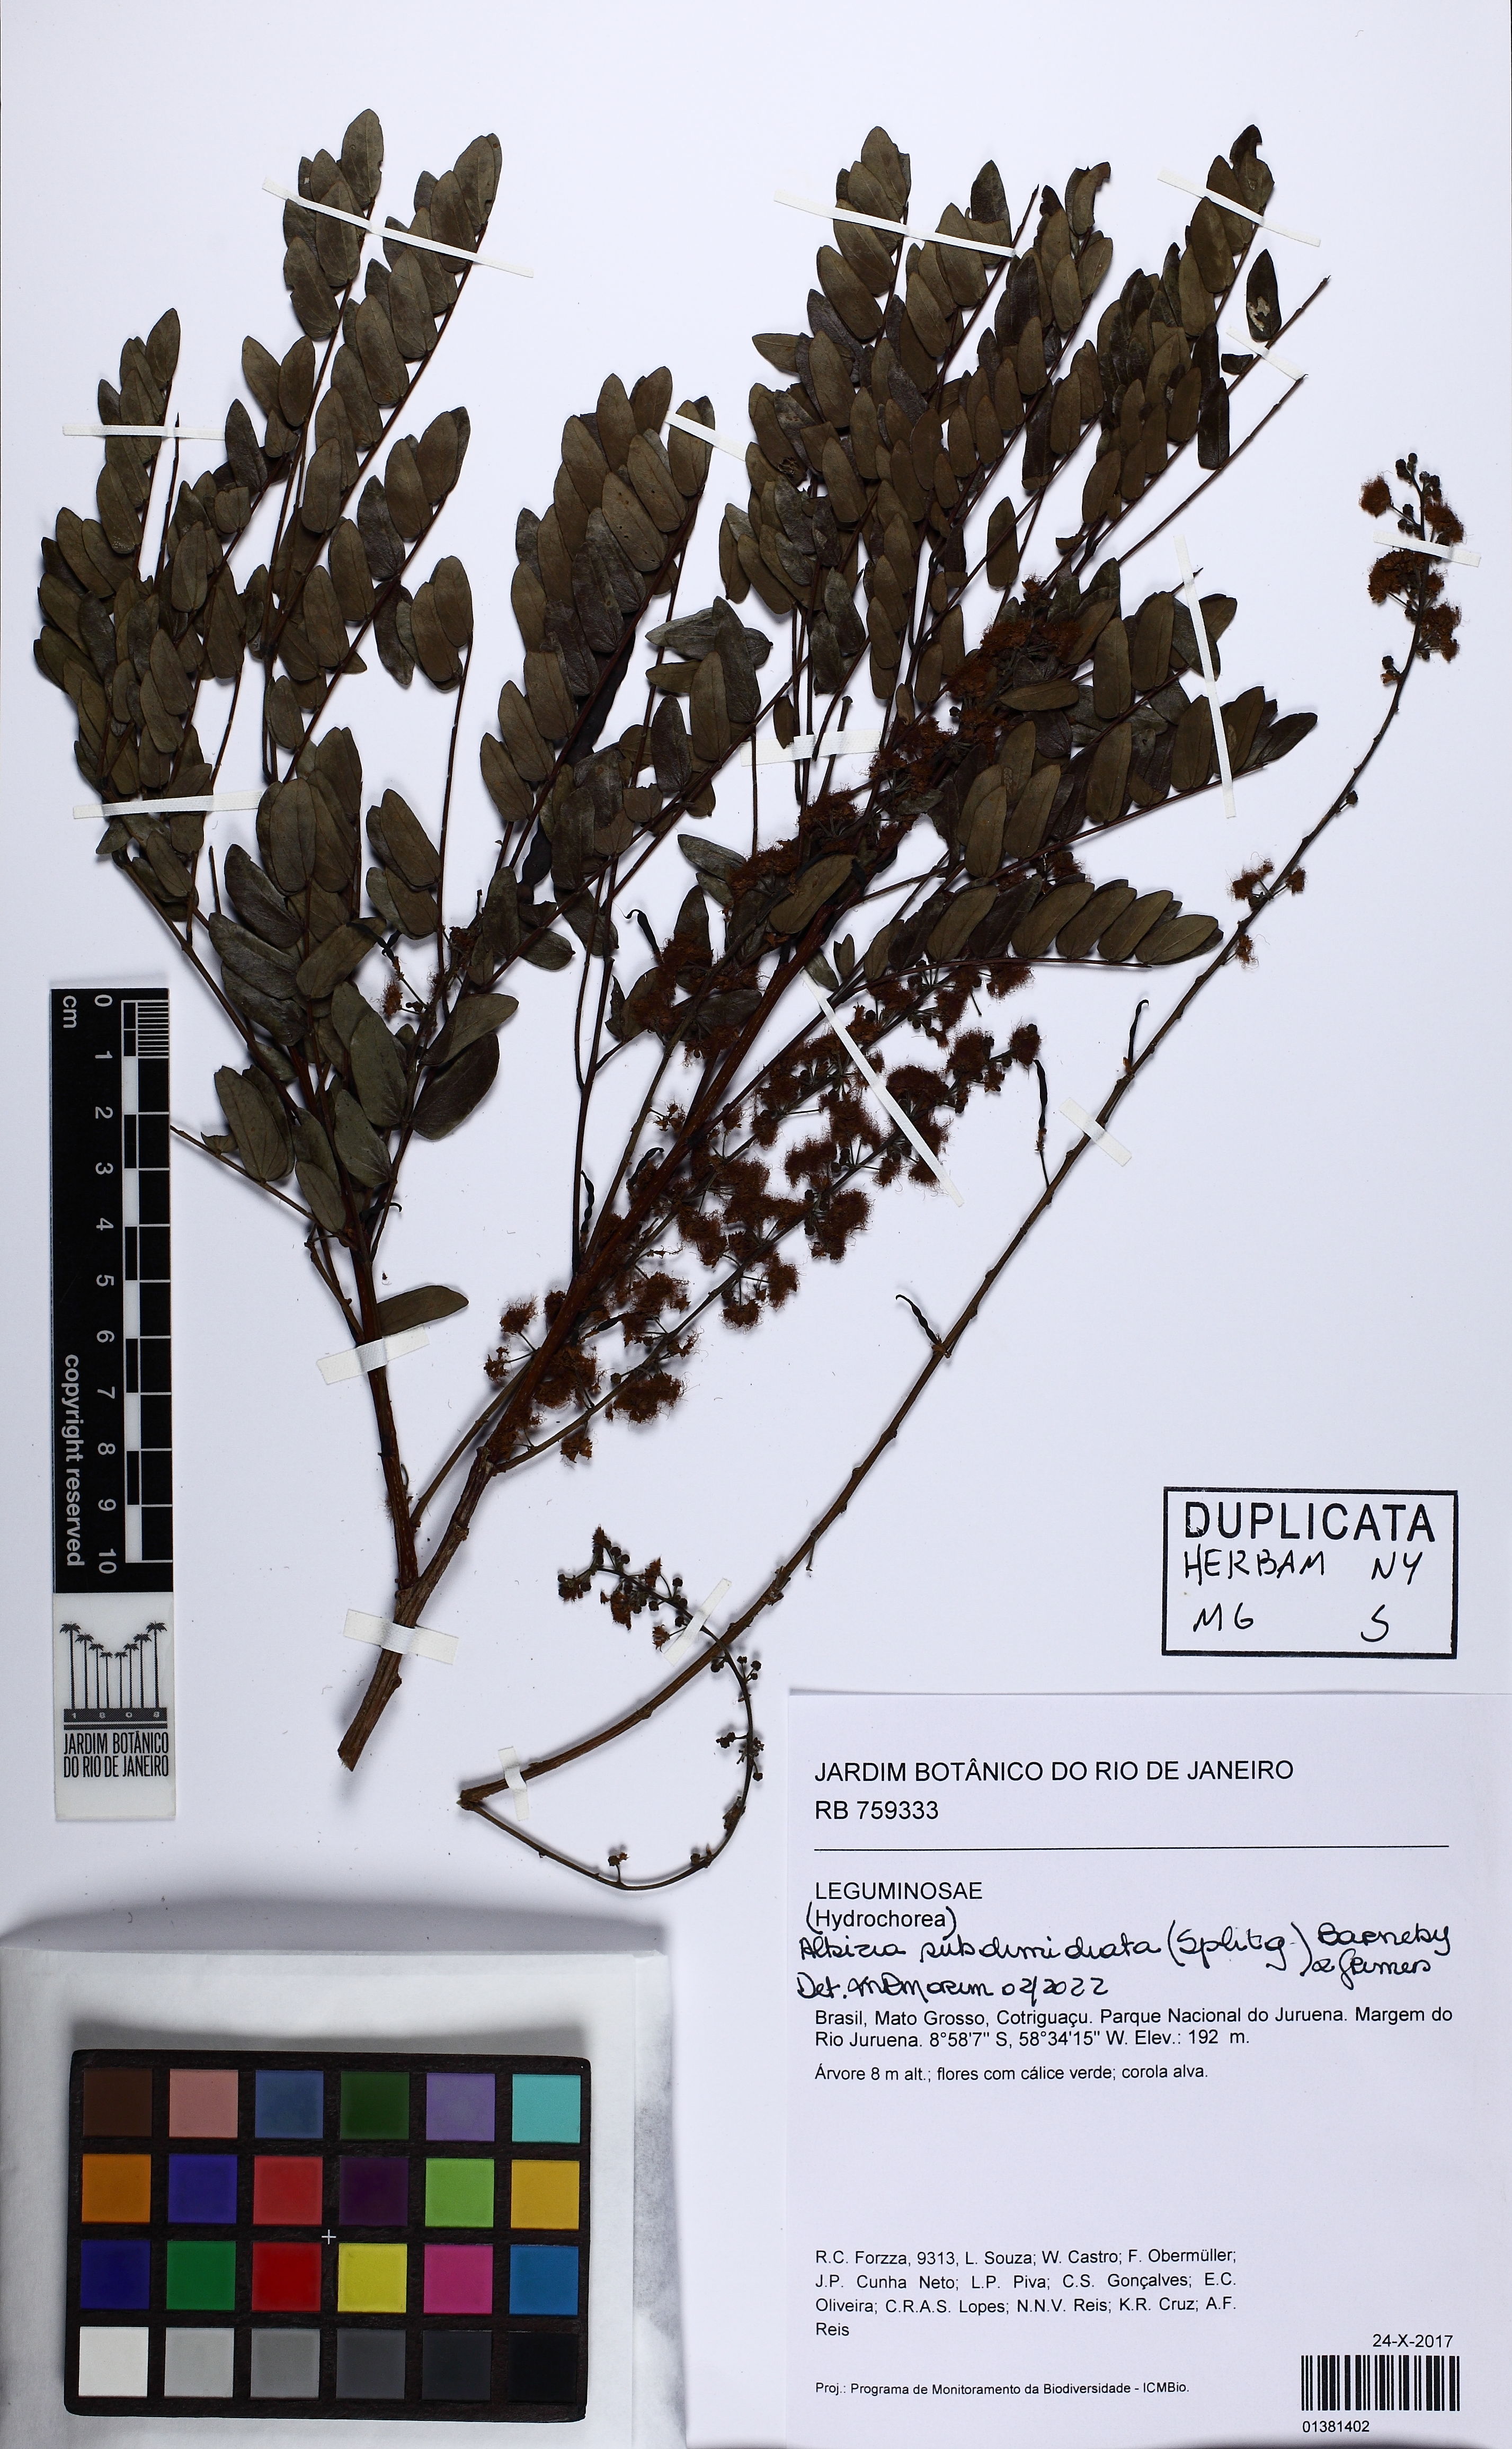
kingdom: Plantae
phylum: Tracheophyta
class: Magnoliopsida
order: Fabales
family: Fabaceae
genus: Albizia
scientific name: Albizia subdimidiata
